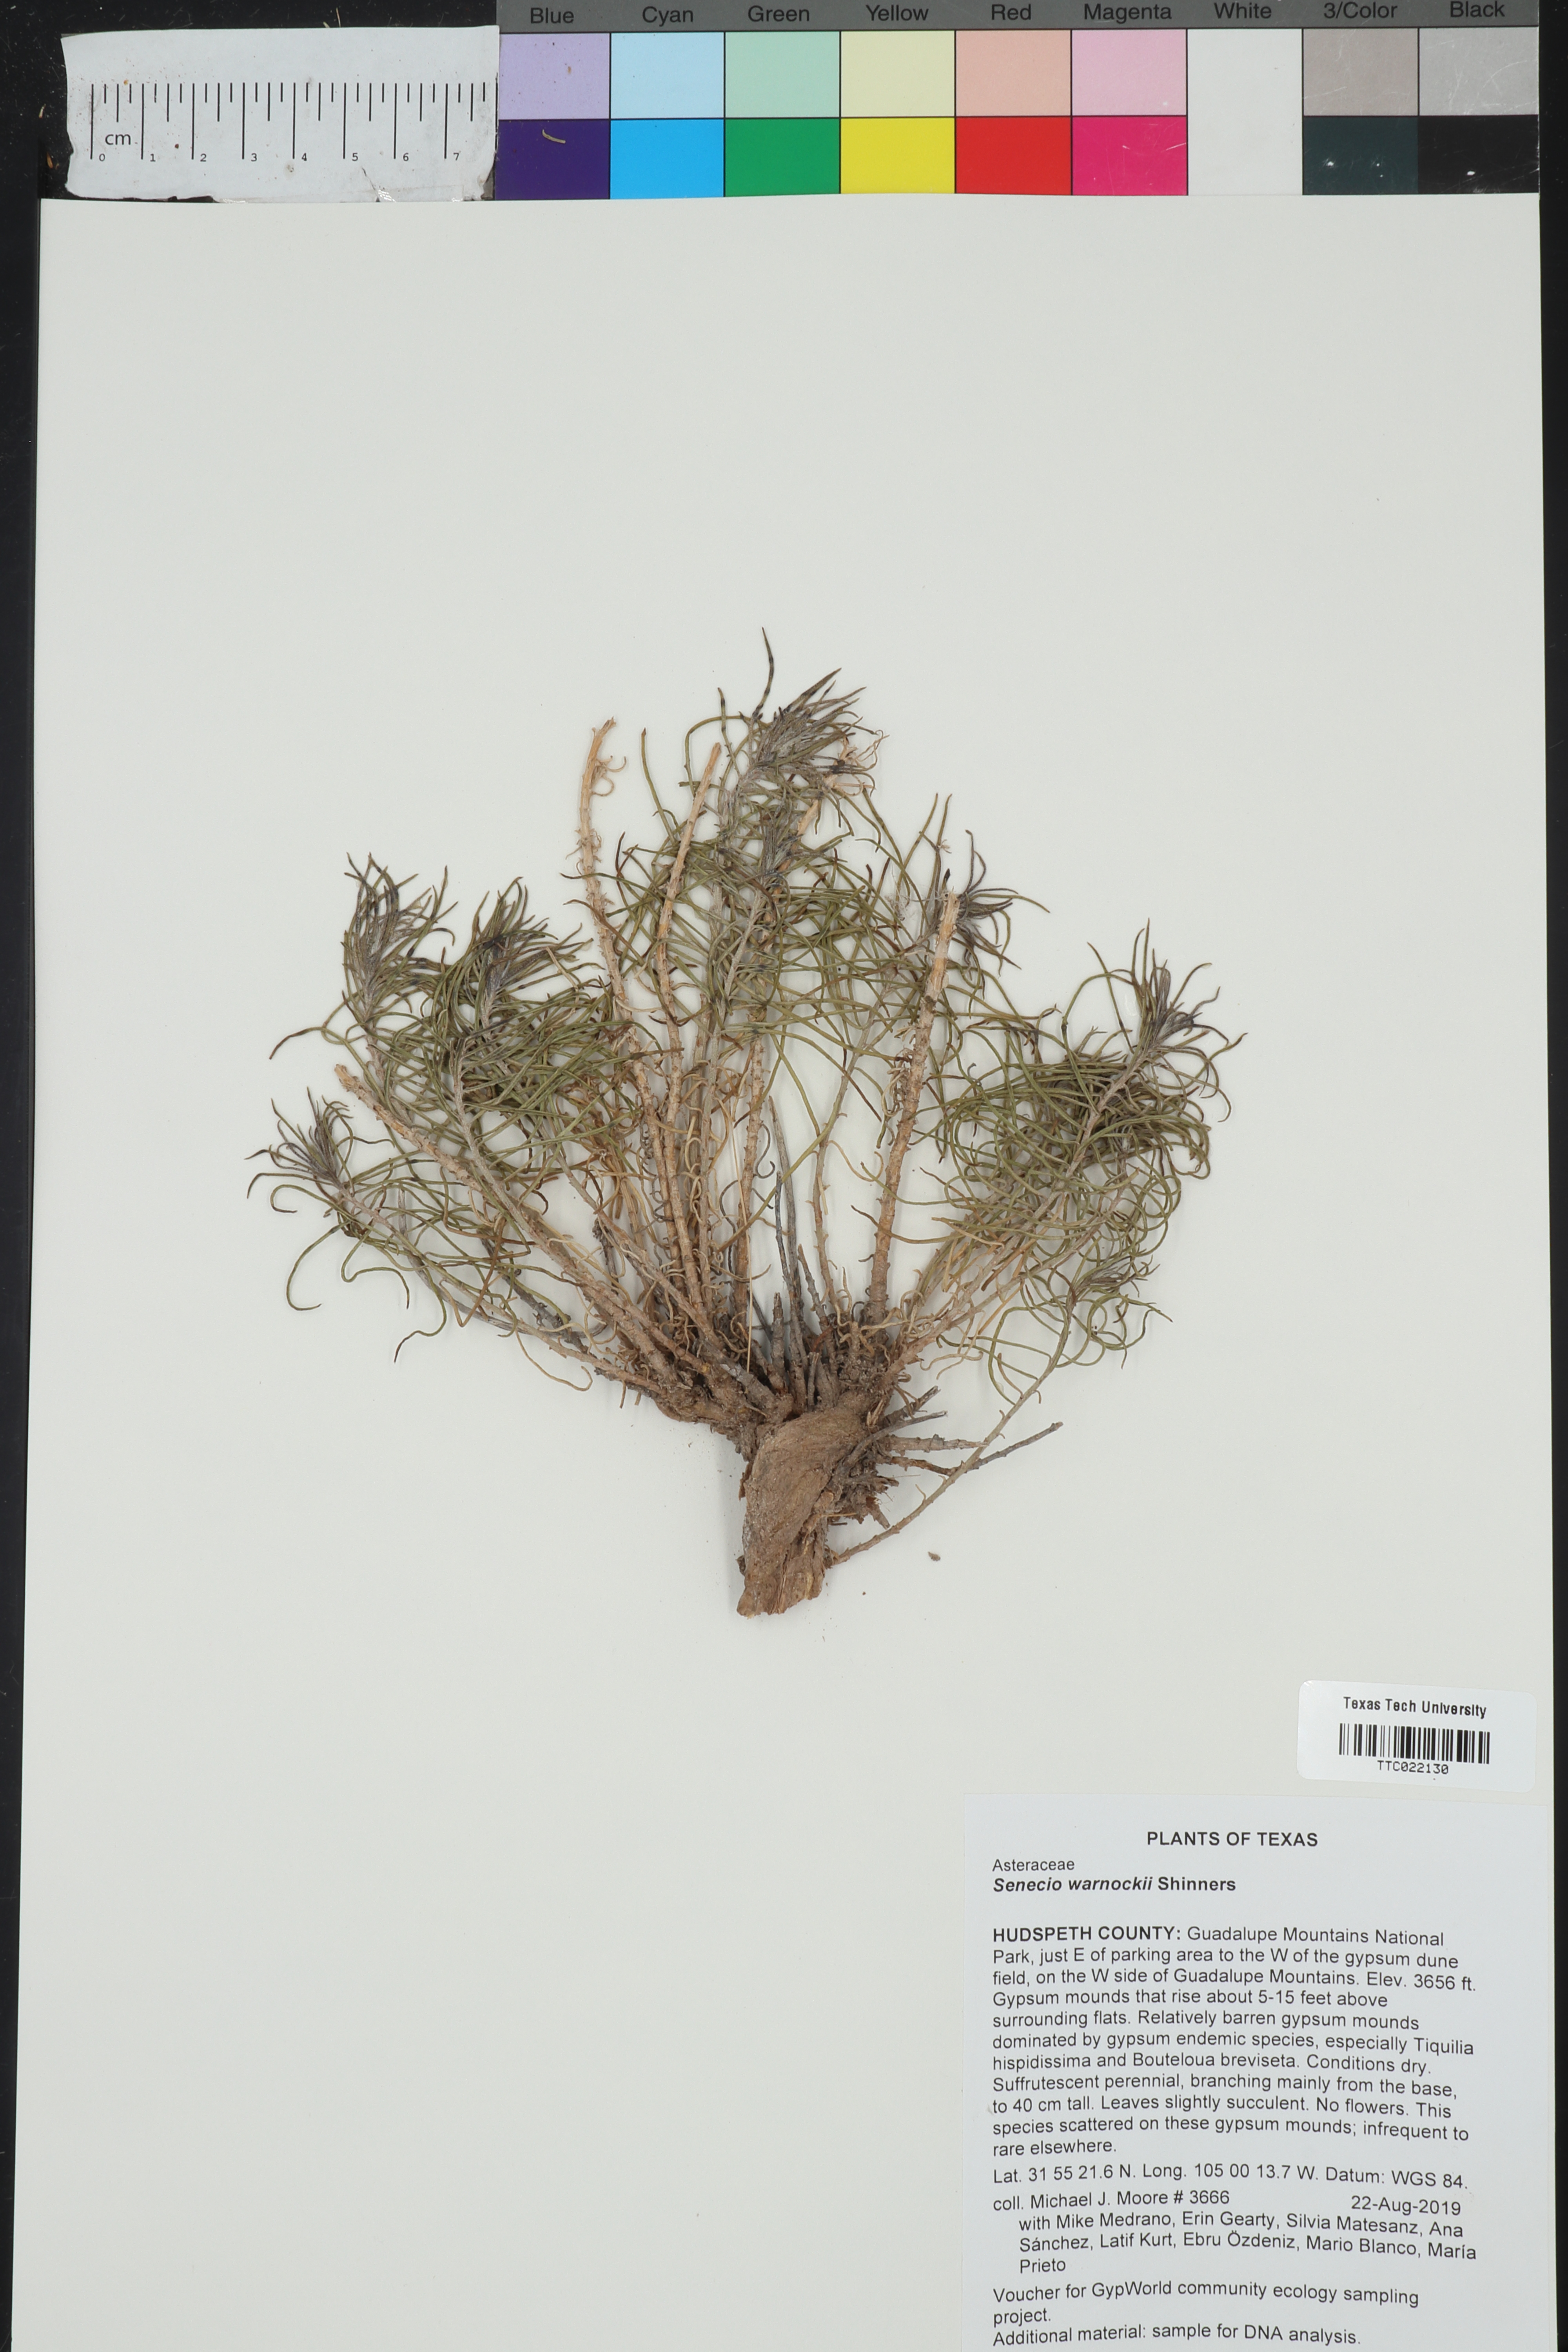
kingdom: Plantae
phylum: Tracheophyta
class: Magnoliopsida
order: Asterales
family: Asteraceae
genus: Senecio
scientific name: Senecio warnockii
